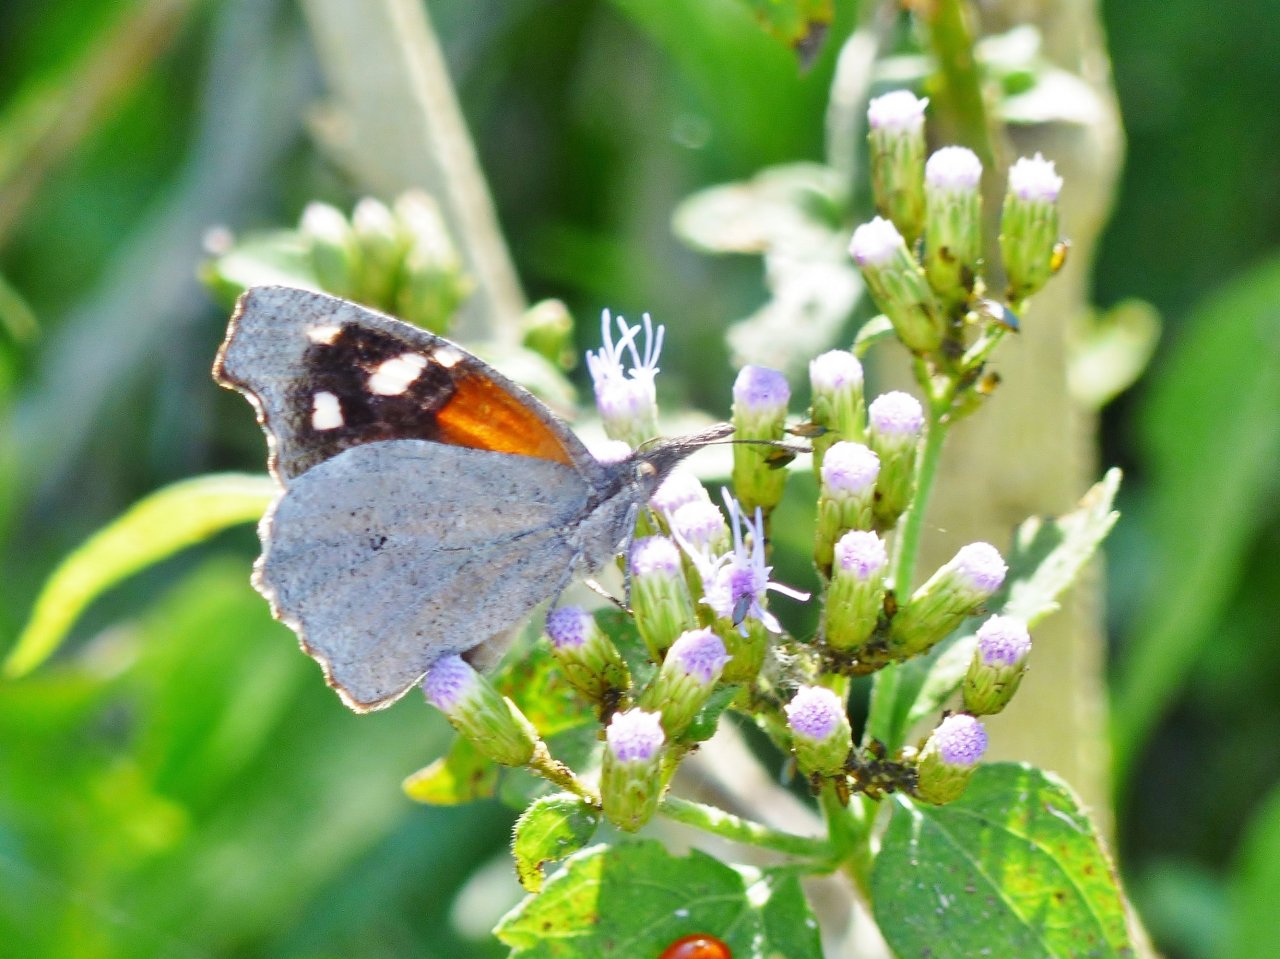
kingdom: Animalia
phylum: Arthropoda
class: Insecta
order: Lepidoptera
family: Nymphalidae
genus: Libytheana
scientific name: Libytheana carinenta
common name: American Snout
